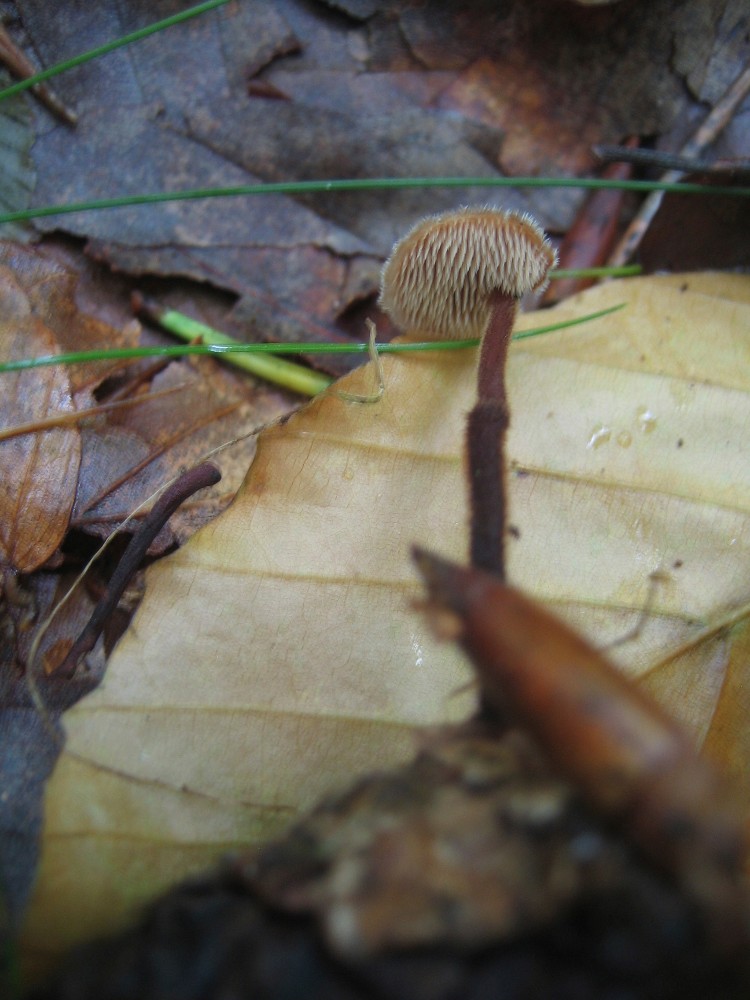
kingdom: Fungi
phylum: Basidiomycota
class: Agaricomycetes
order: Russulales
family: Auriscalpiaceae
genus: Auriscalpium
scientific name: Auriscalpium vulgare
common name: koglepigsvamp
